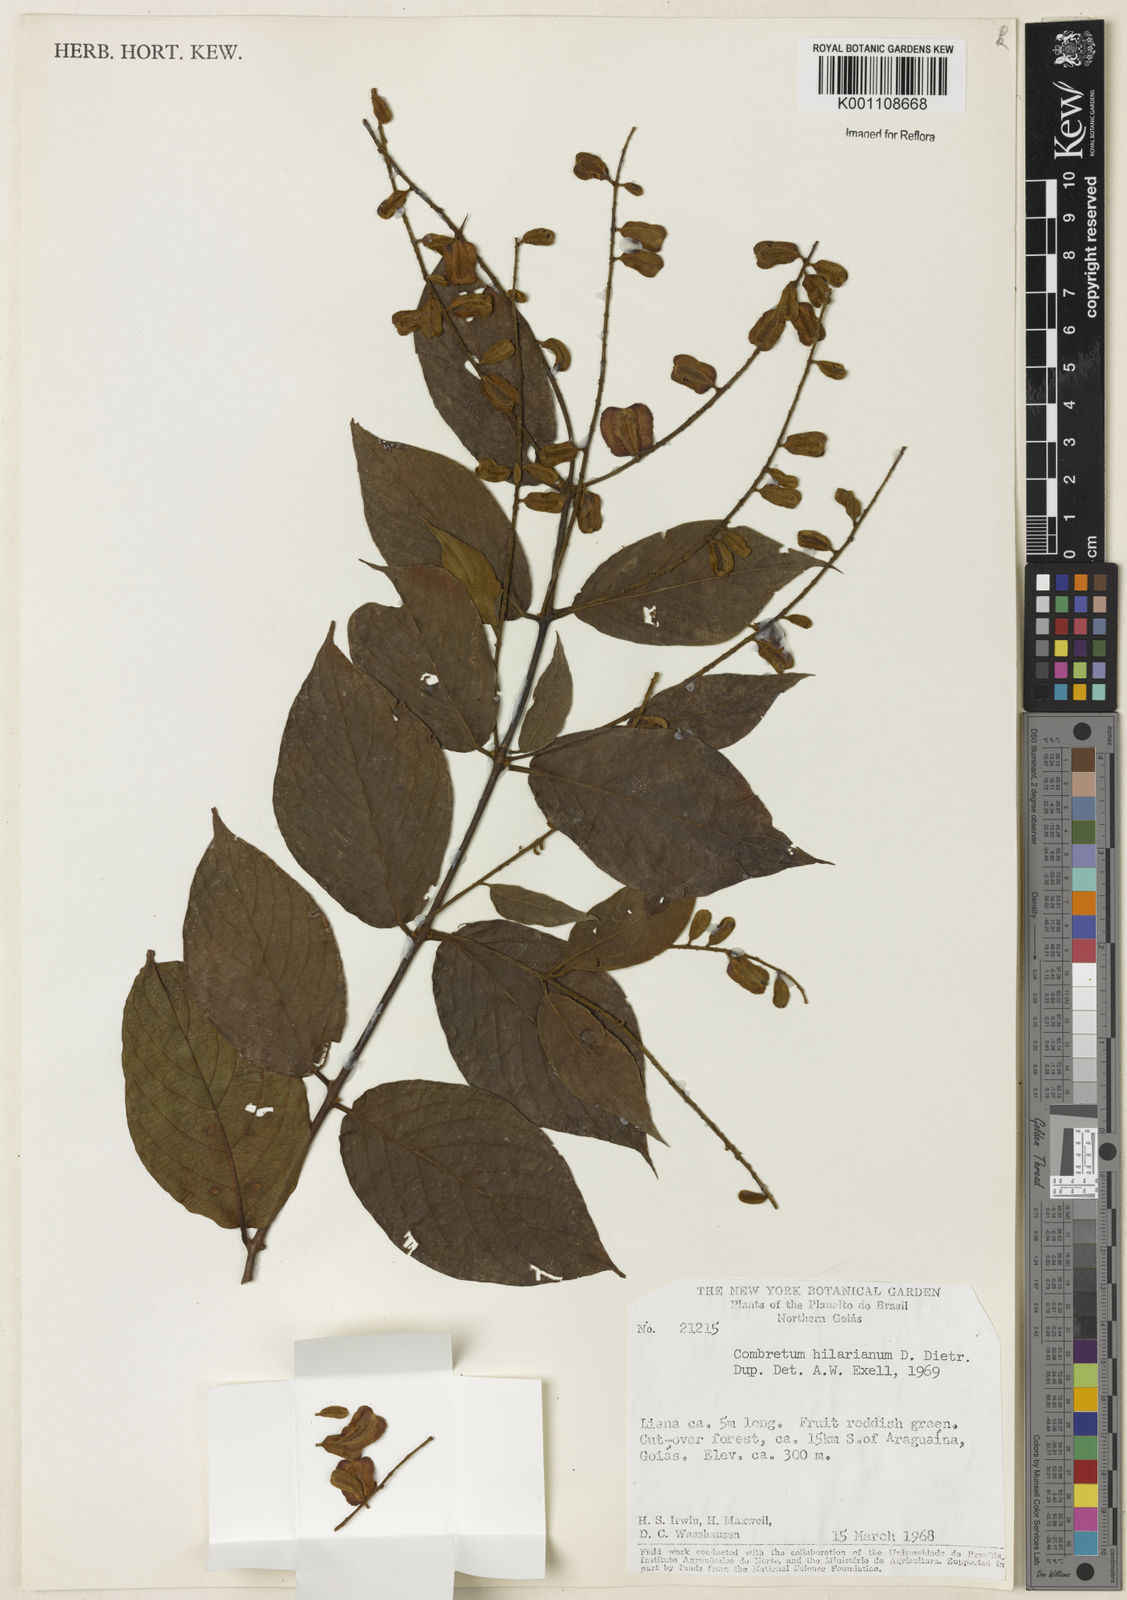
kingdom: Plantae
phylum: Tracheophyta
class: Magnoliopsida
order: Myrtales
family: Combretaceae
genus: Combretum
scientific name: Combretum hilarianum
